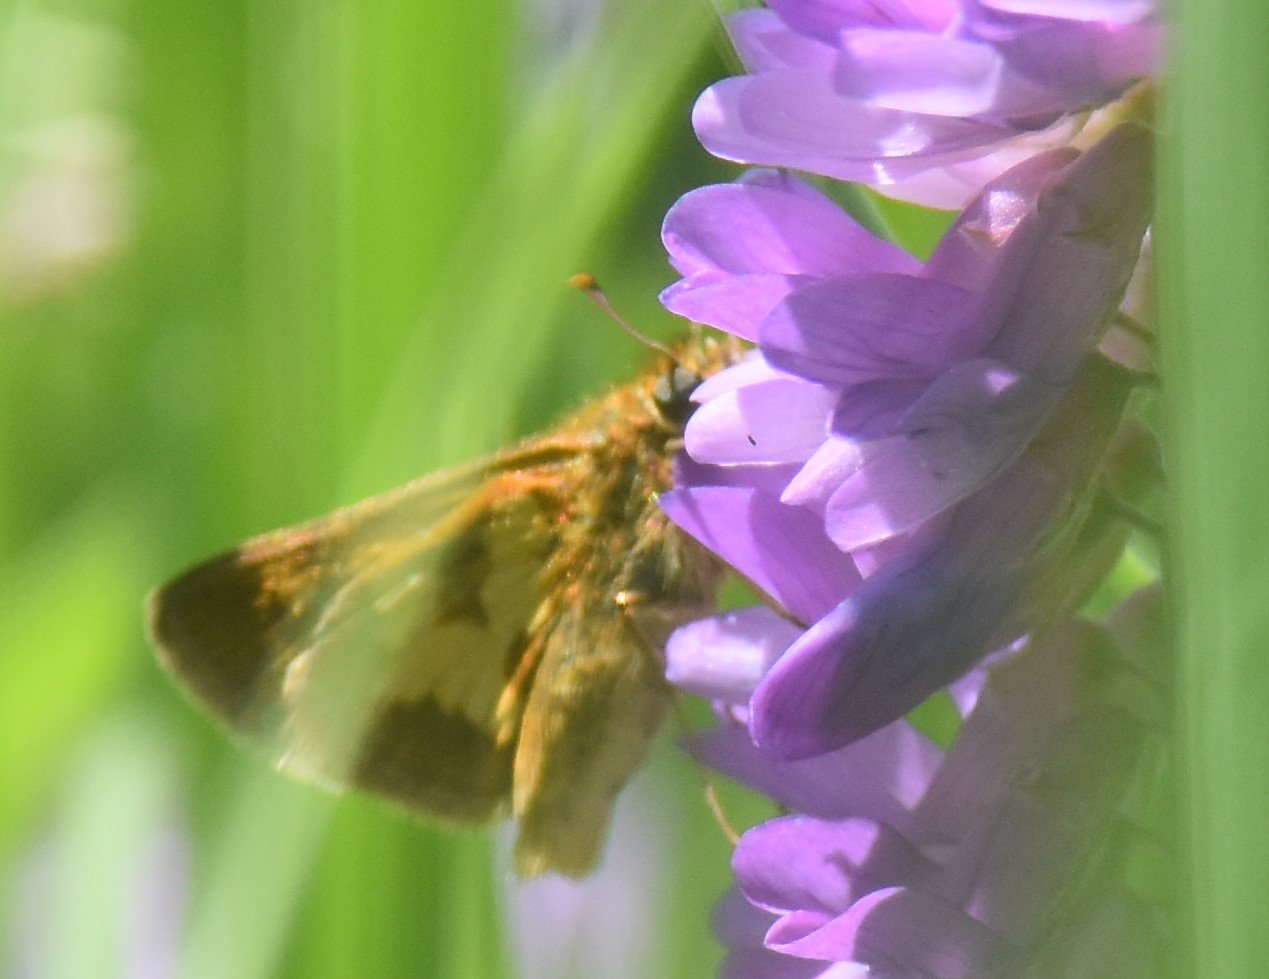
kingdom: Animalia
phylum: Arthropoda
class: Insecta
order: Lepidoptera
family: Hesperiidae
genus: Polites
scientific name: Polites coras
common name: Peck's Skipper
